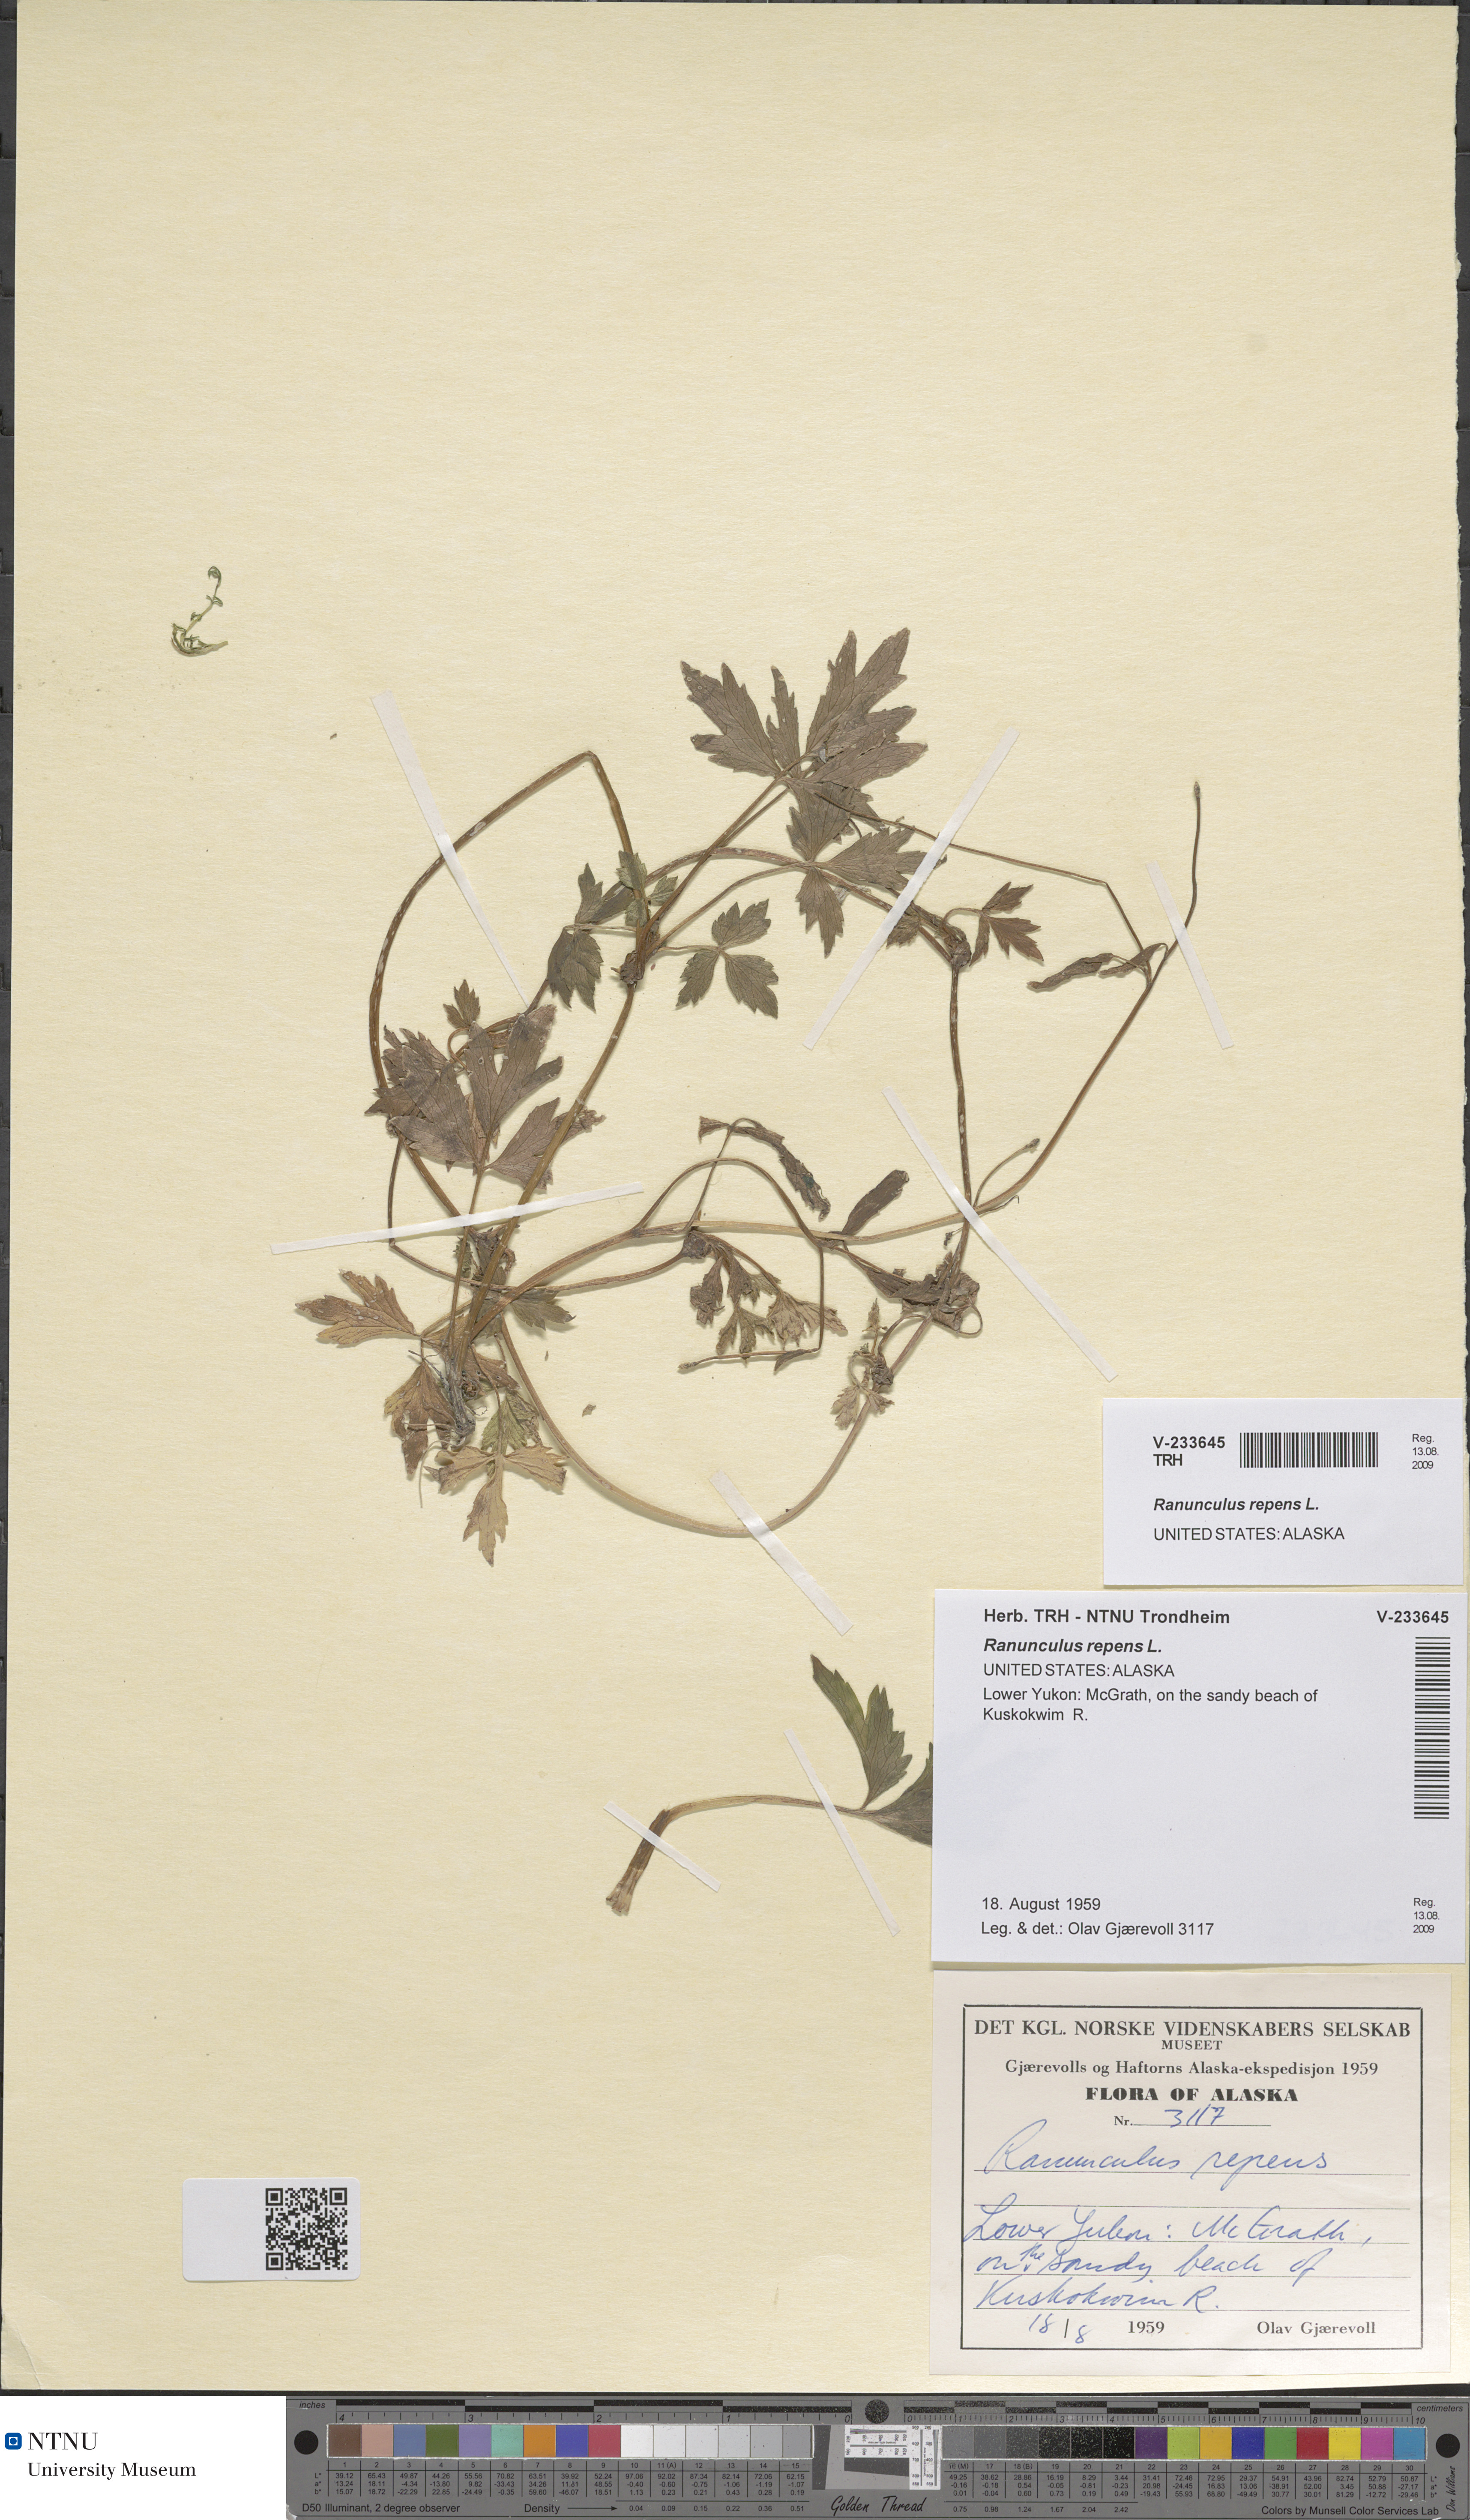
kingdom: Plantae
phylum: Tracheophyta
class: Magnoliopsida
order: Ranunculales
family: Ranunculaceae
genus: Ranunculus
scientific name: Ranunculus repens
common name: Creeping buttercup
